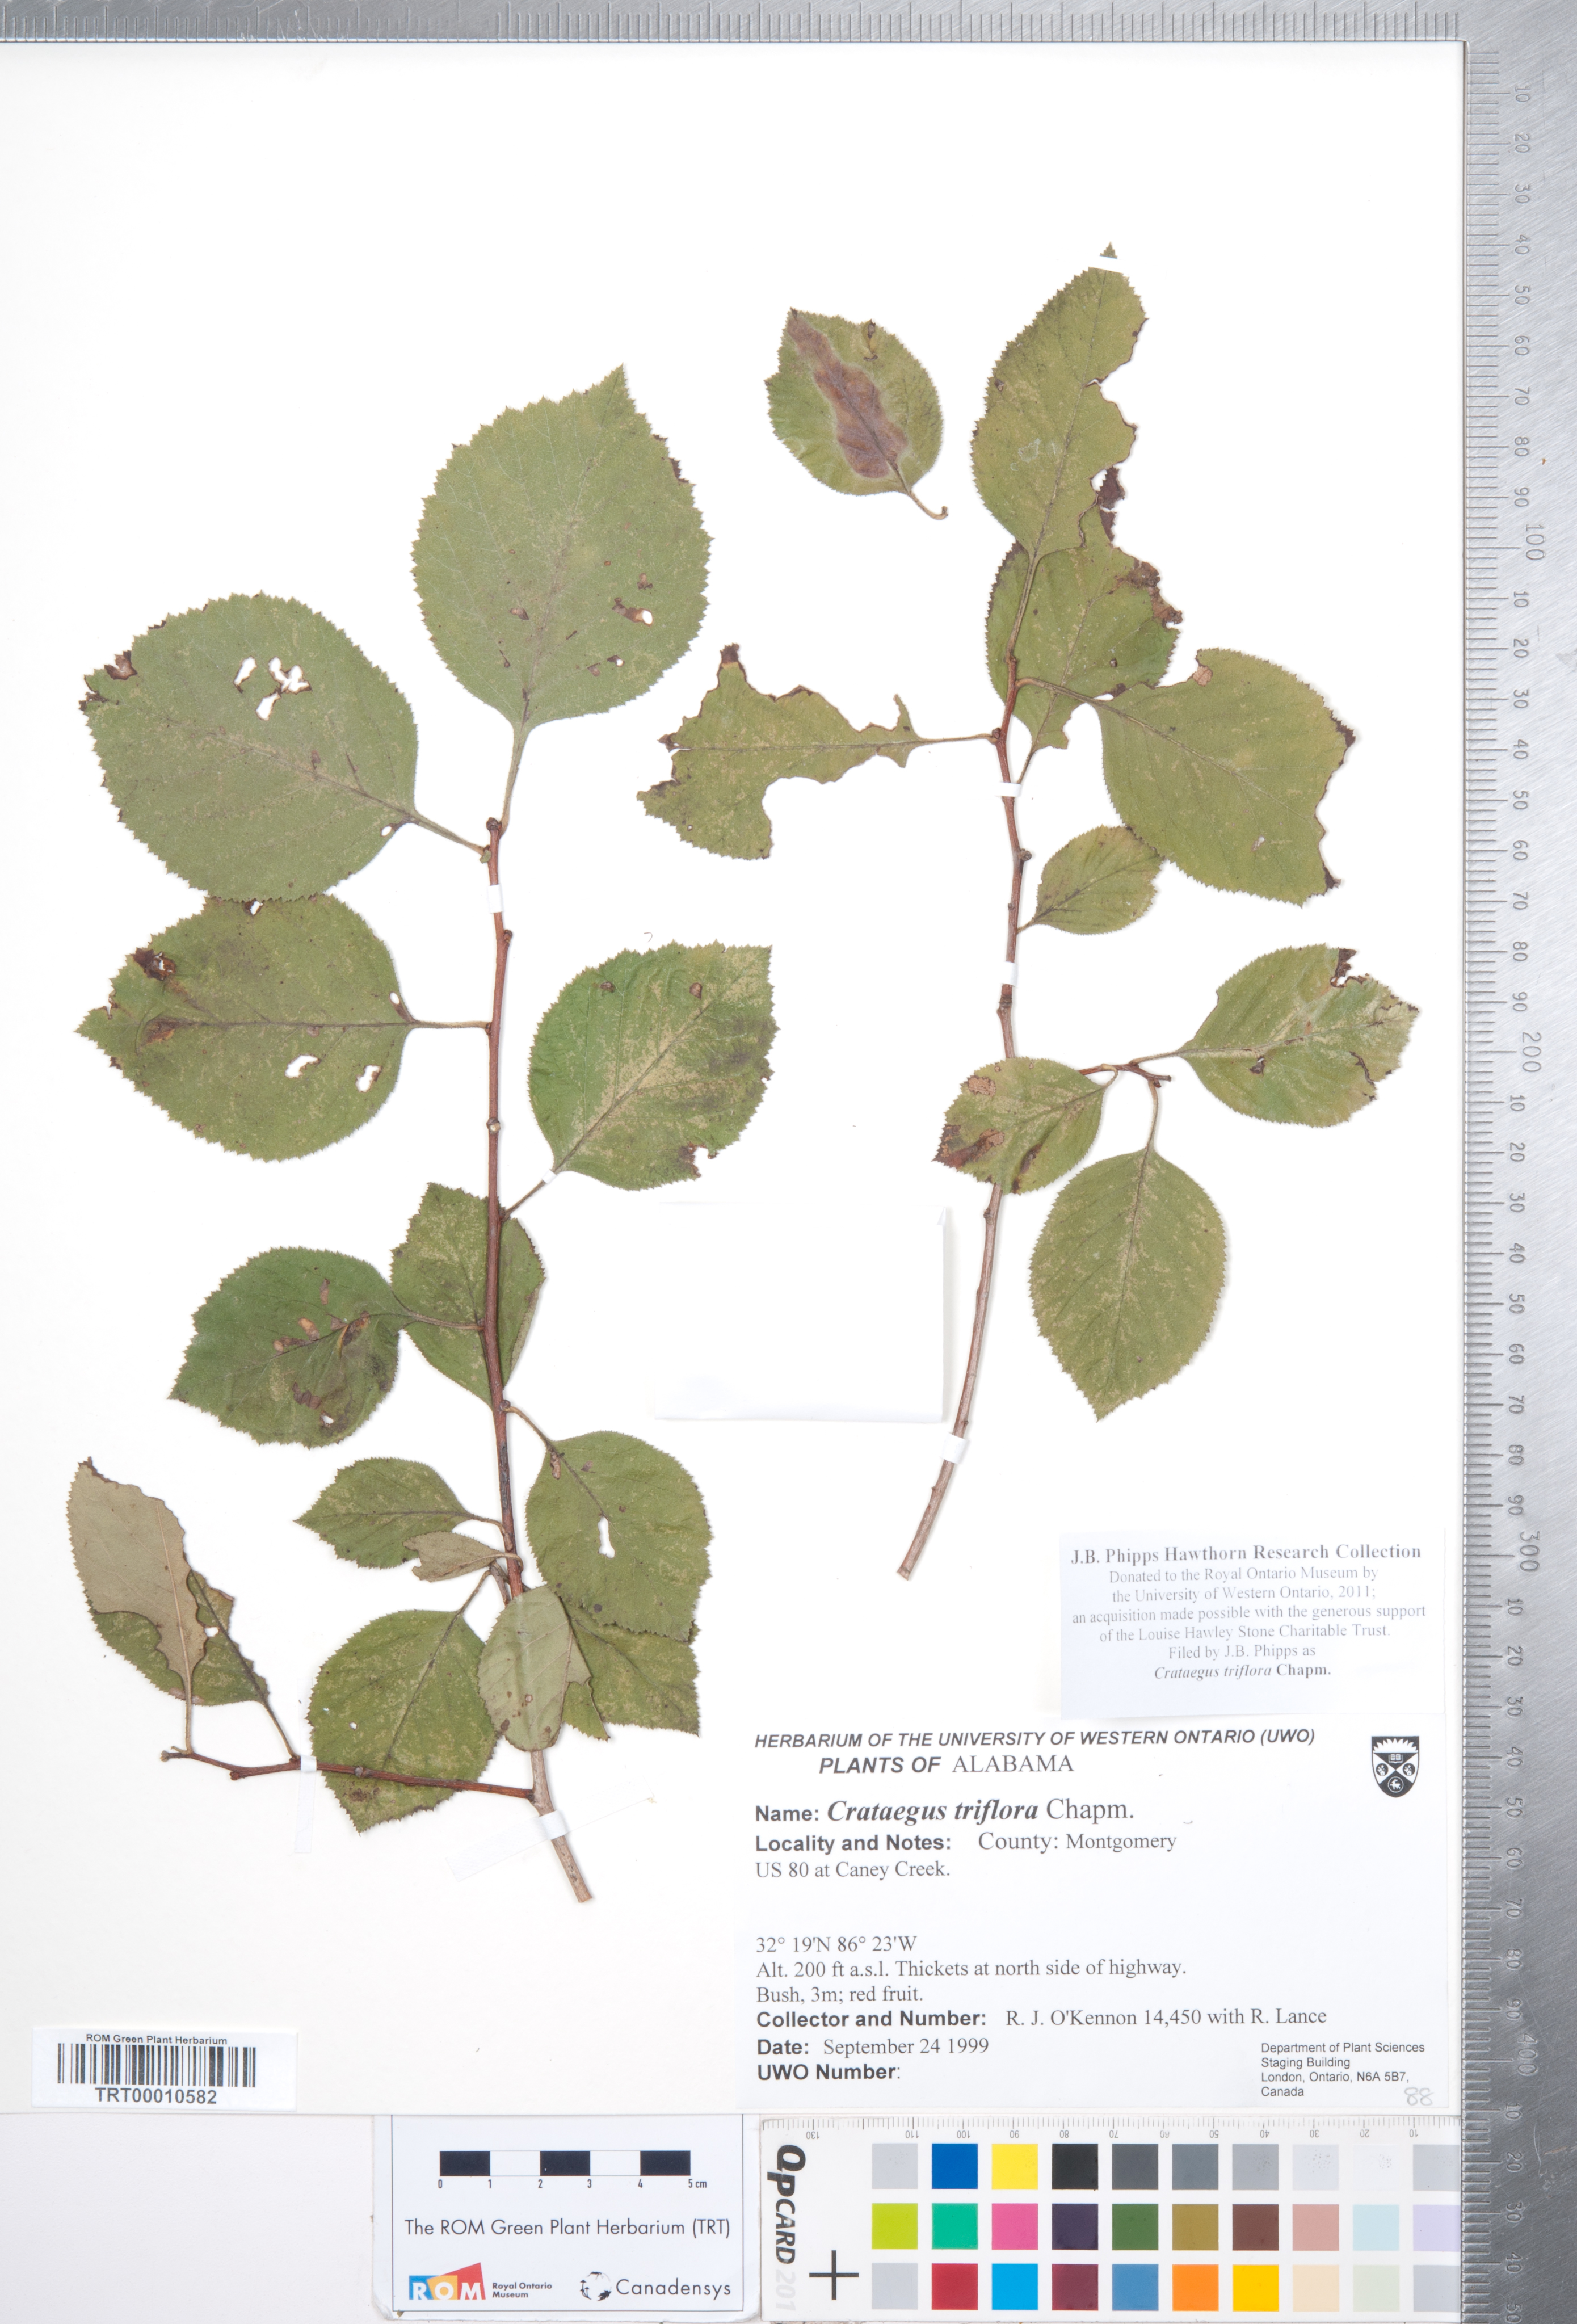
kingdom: Plantae
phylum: Tracheophyta
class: Magnoliopsida
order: Rosales
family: Rosaceae
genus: Crataegus
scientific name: Crataegus triflora
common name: Three-flower hawthorn
